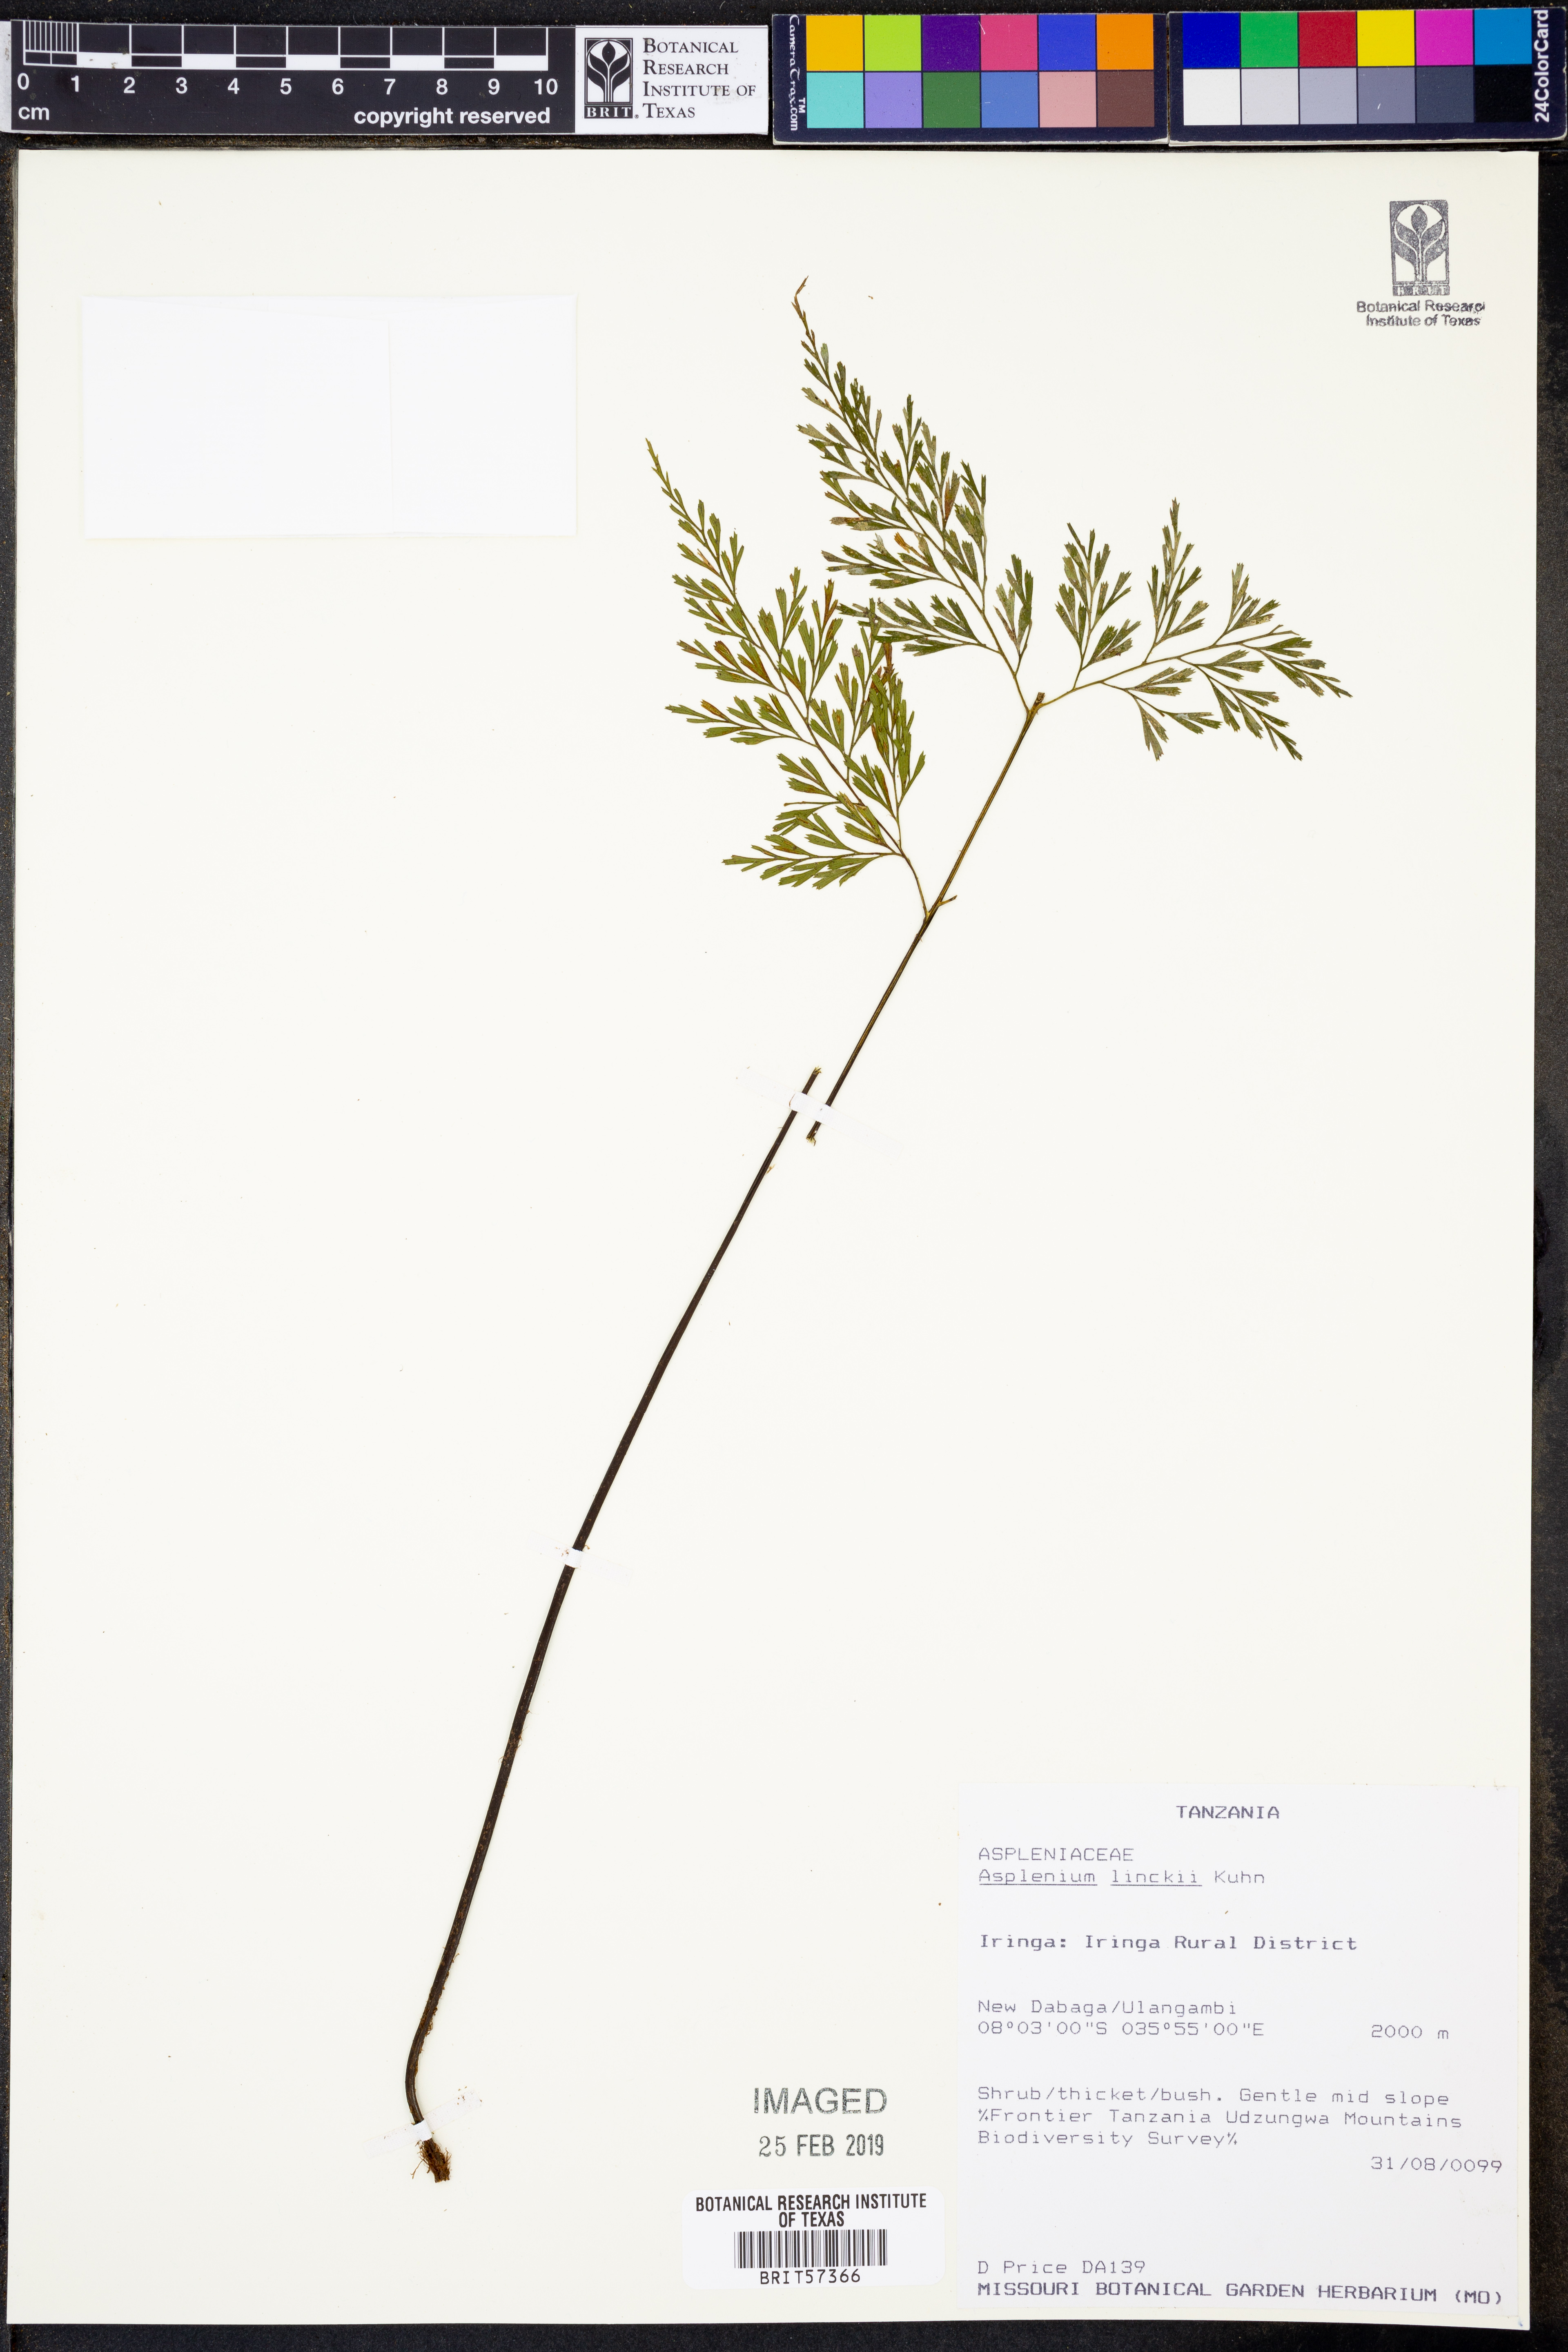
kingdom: Plantae
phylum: Tracheophyta
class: Polypodiopsida
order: Polypodiales
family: Aspleniaceae
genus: Asplenium
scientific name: Asplenium linckii
